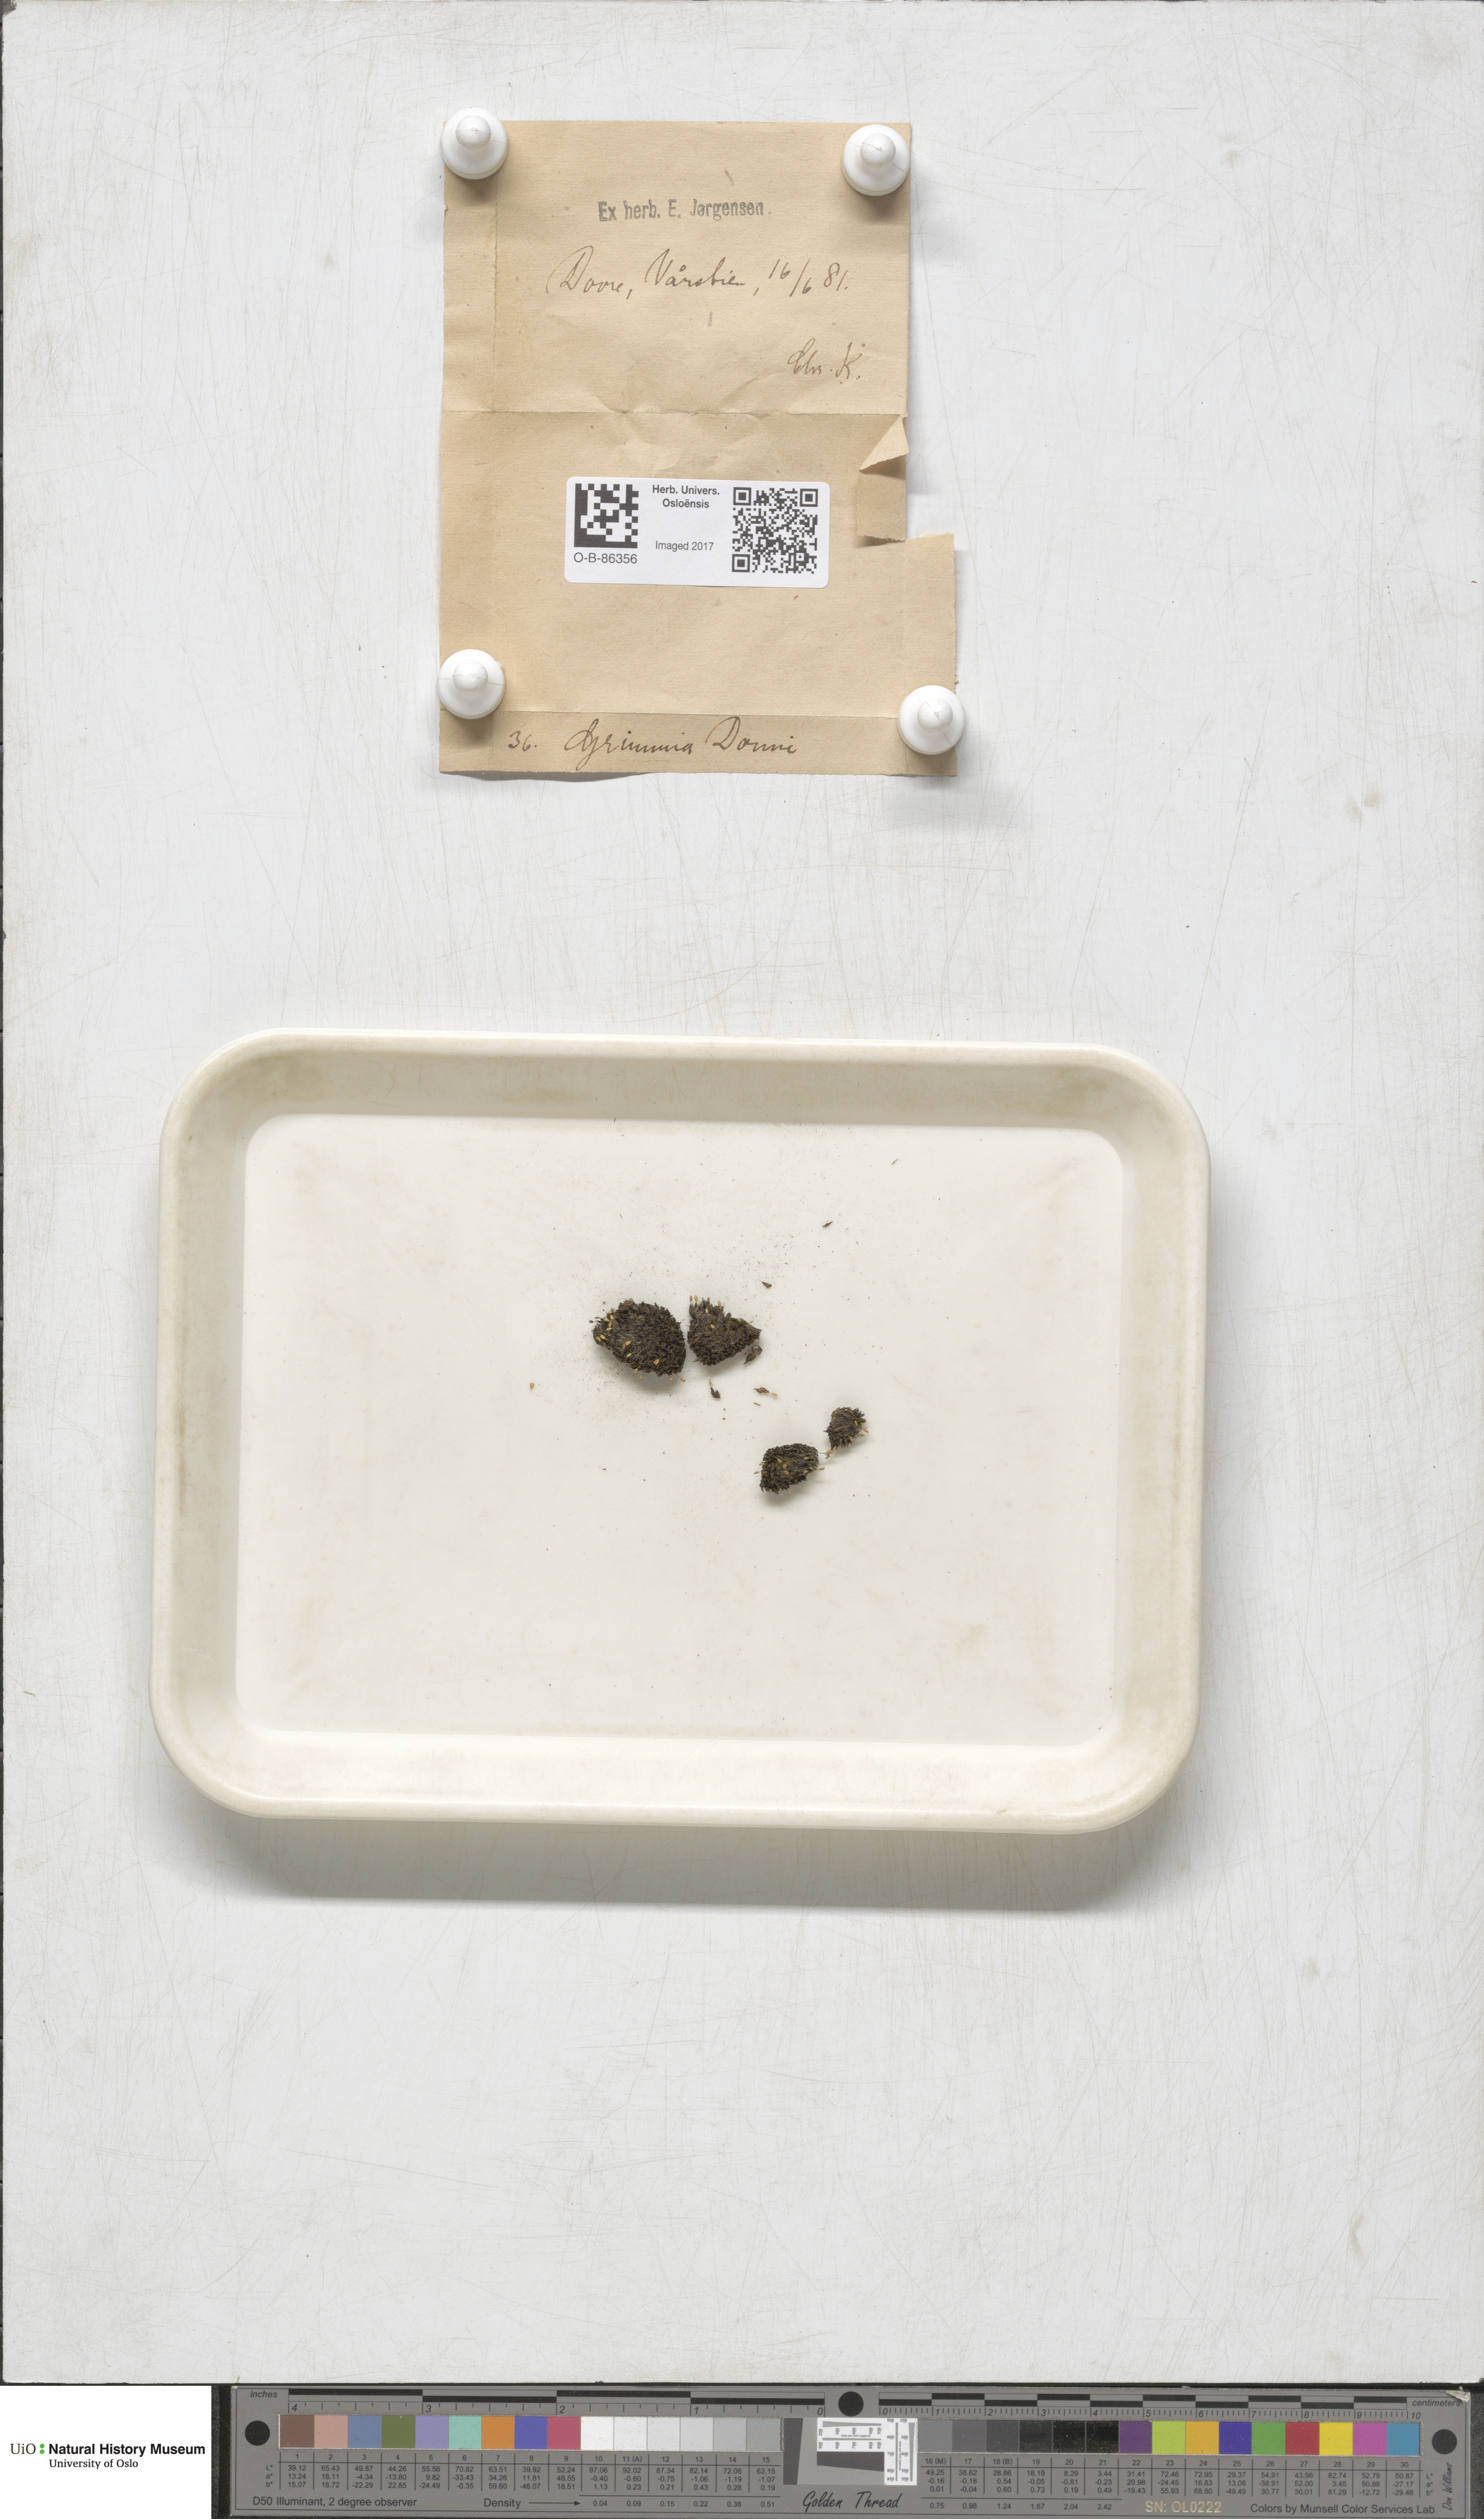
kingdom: Plantae
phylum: Bryophyta
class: Bryopsida
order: Grimmiales
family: Grimmiaceae
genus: Grimmia
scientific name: Grimmia donniana
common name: Donn's grimmia
